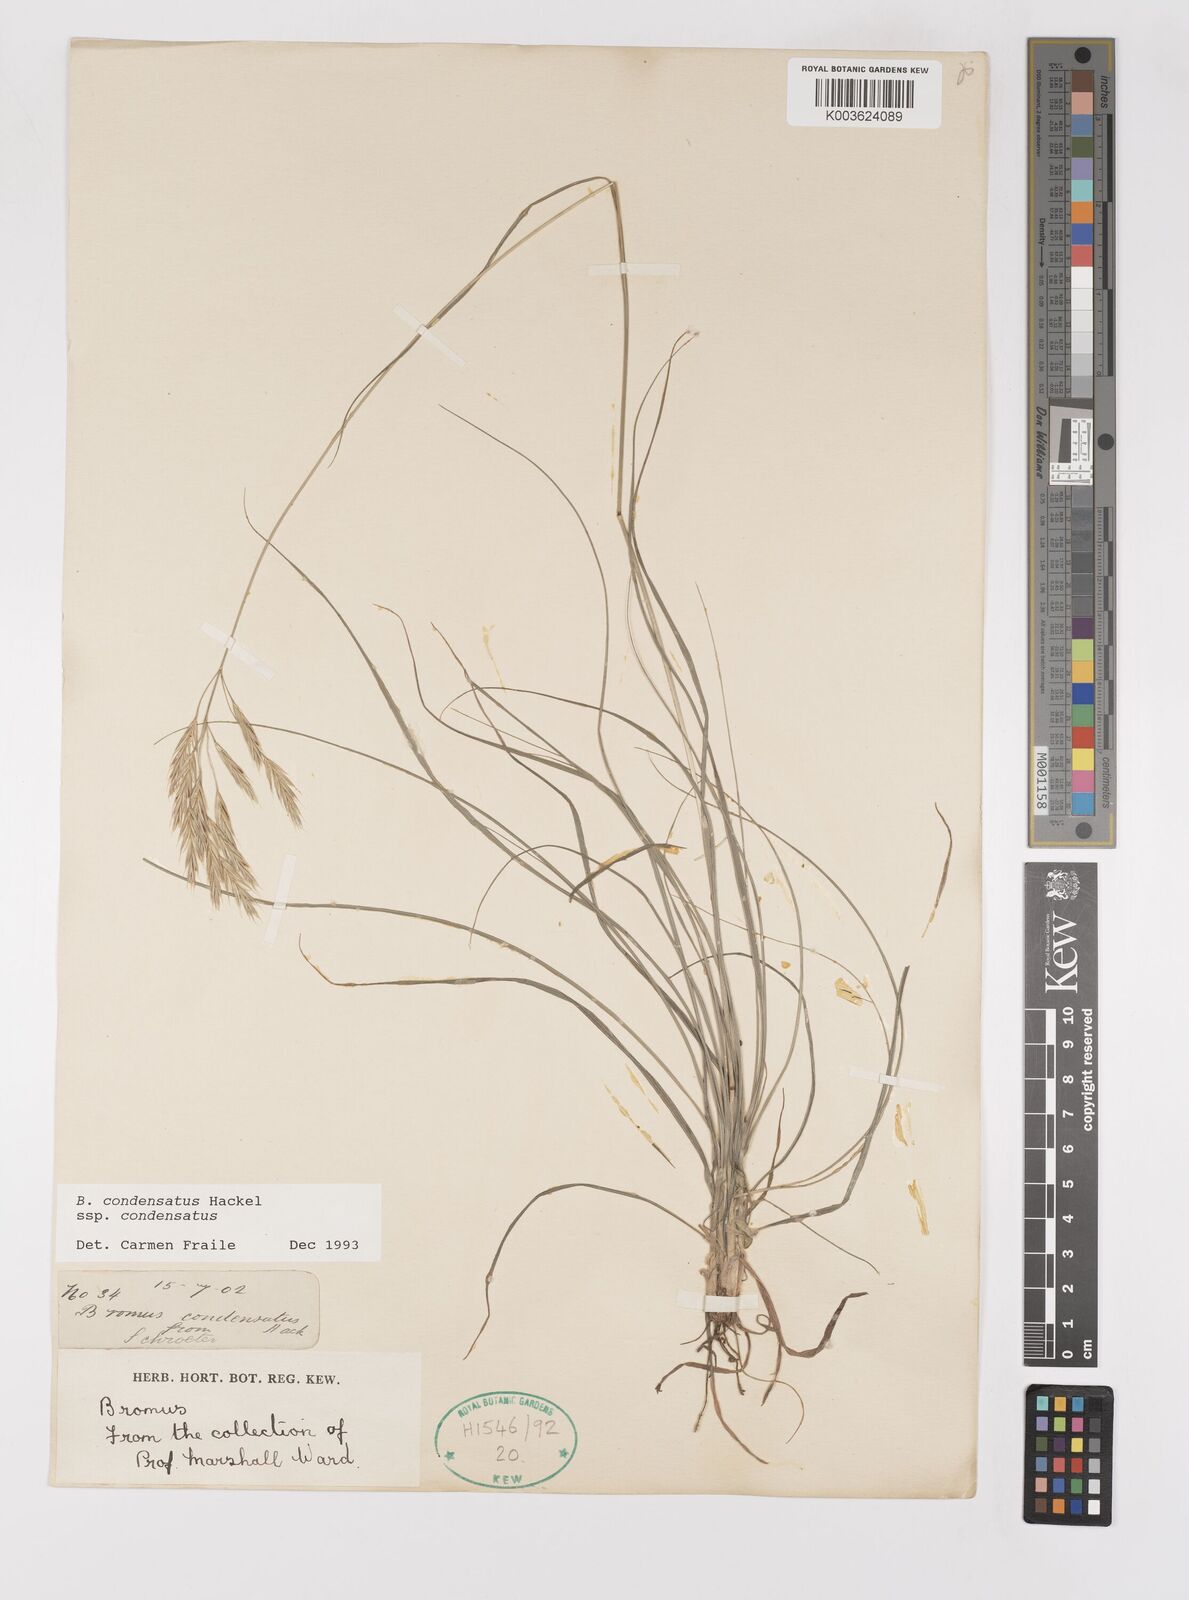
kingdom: Plantae
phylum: Tracheophyta
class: Liliopsida
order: Poales
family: Poaceae
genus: Bromus
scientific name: Bromus erectus
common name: Erect brome
